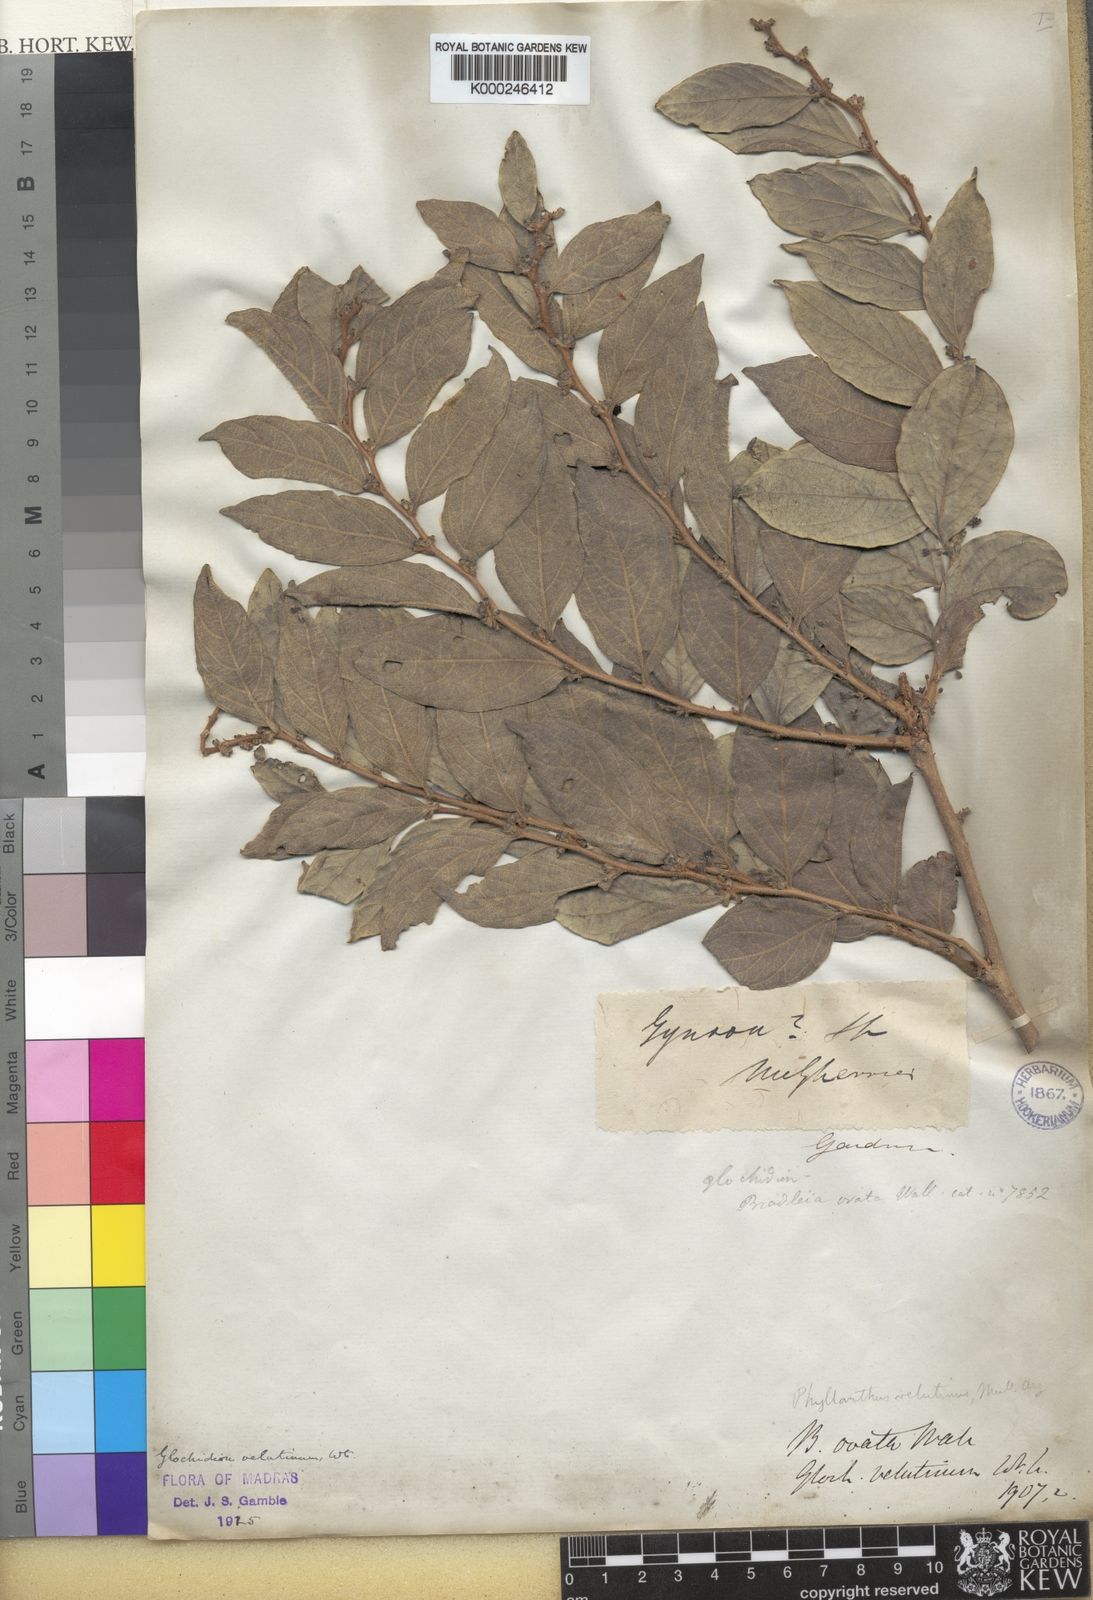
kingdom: Plantae
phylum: Tracheophyta
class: Magnoliopsida
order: Malpighiales
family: Phyllanthaceae
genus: Glochidion
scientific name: Glochidion heyneanum
